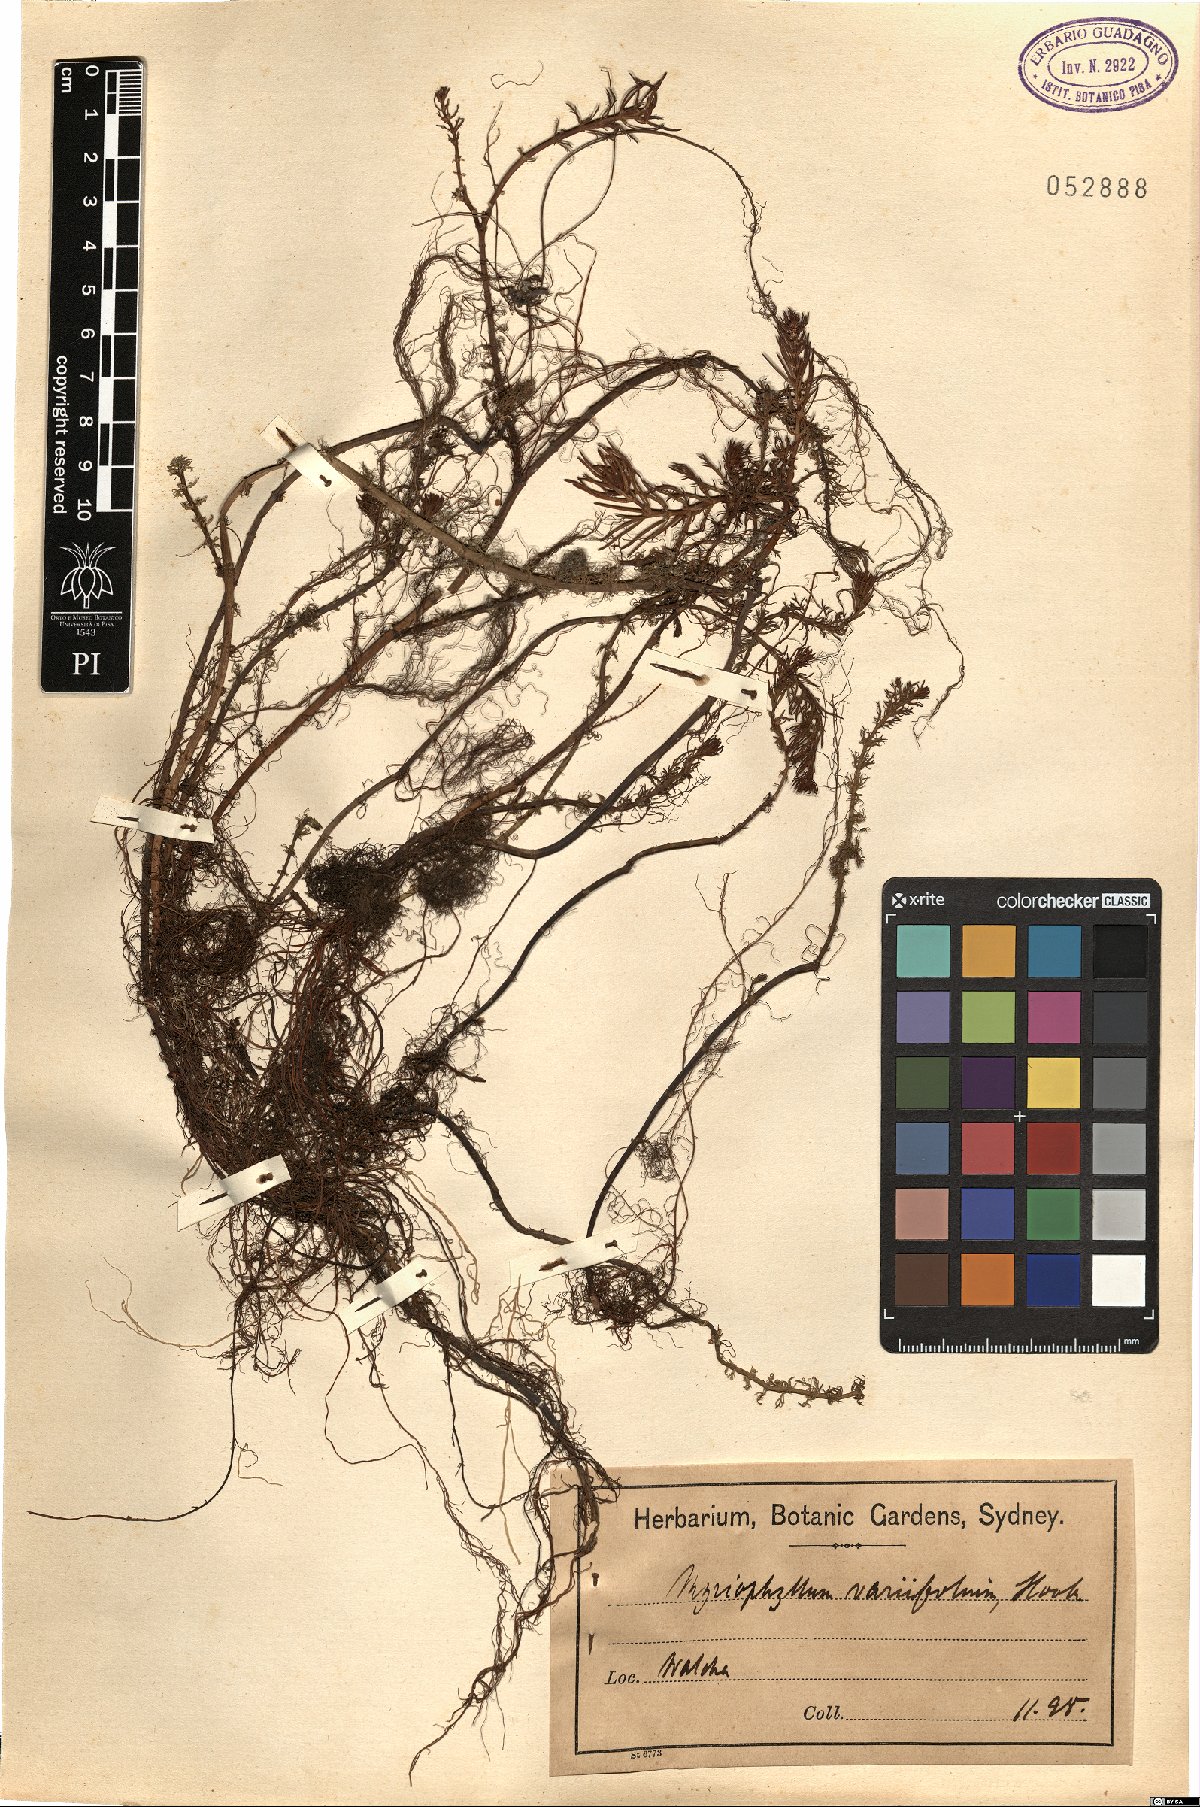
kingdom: Plantae
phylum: Tracheophyta
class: Magnoliopsida
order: Saxifragales
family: Haloragaceae
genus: Myriophyllum
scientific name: Myriophyllum variifolium
